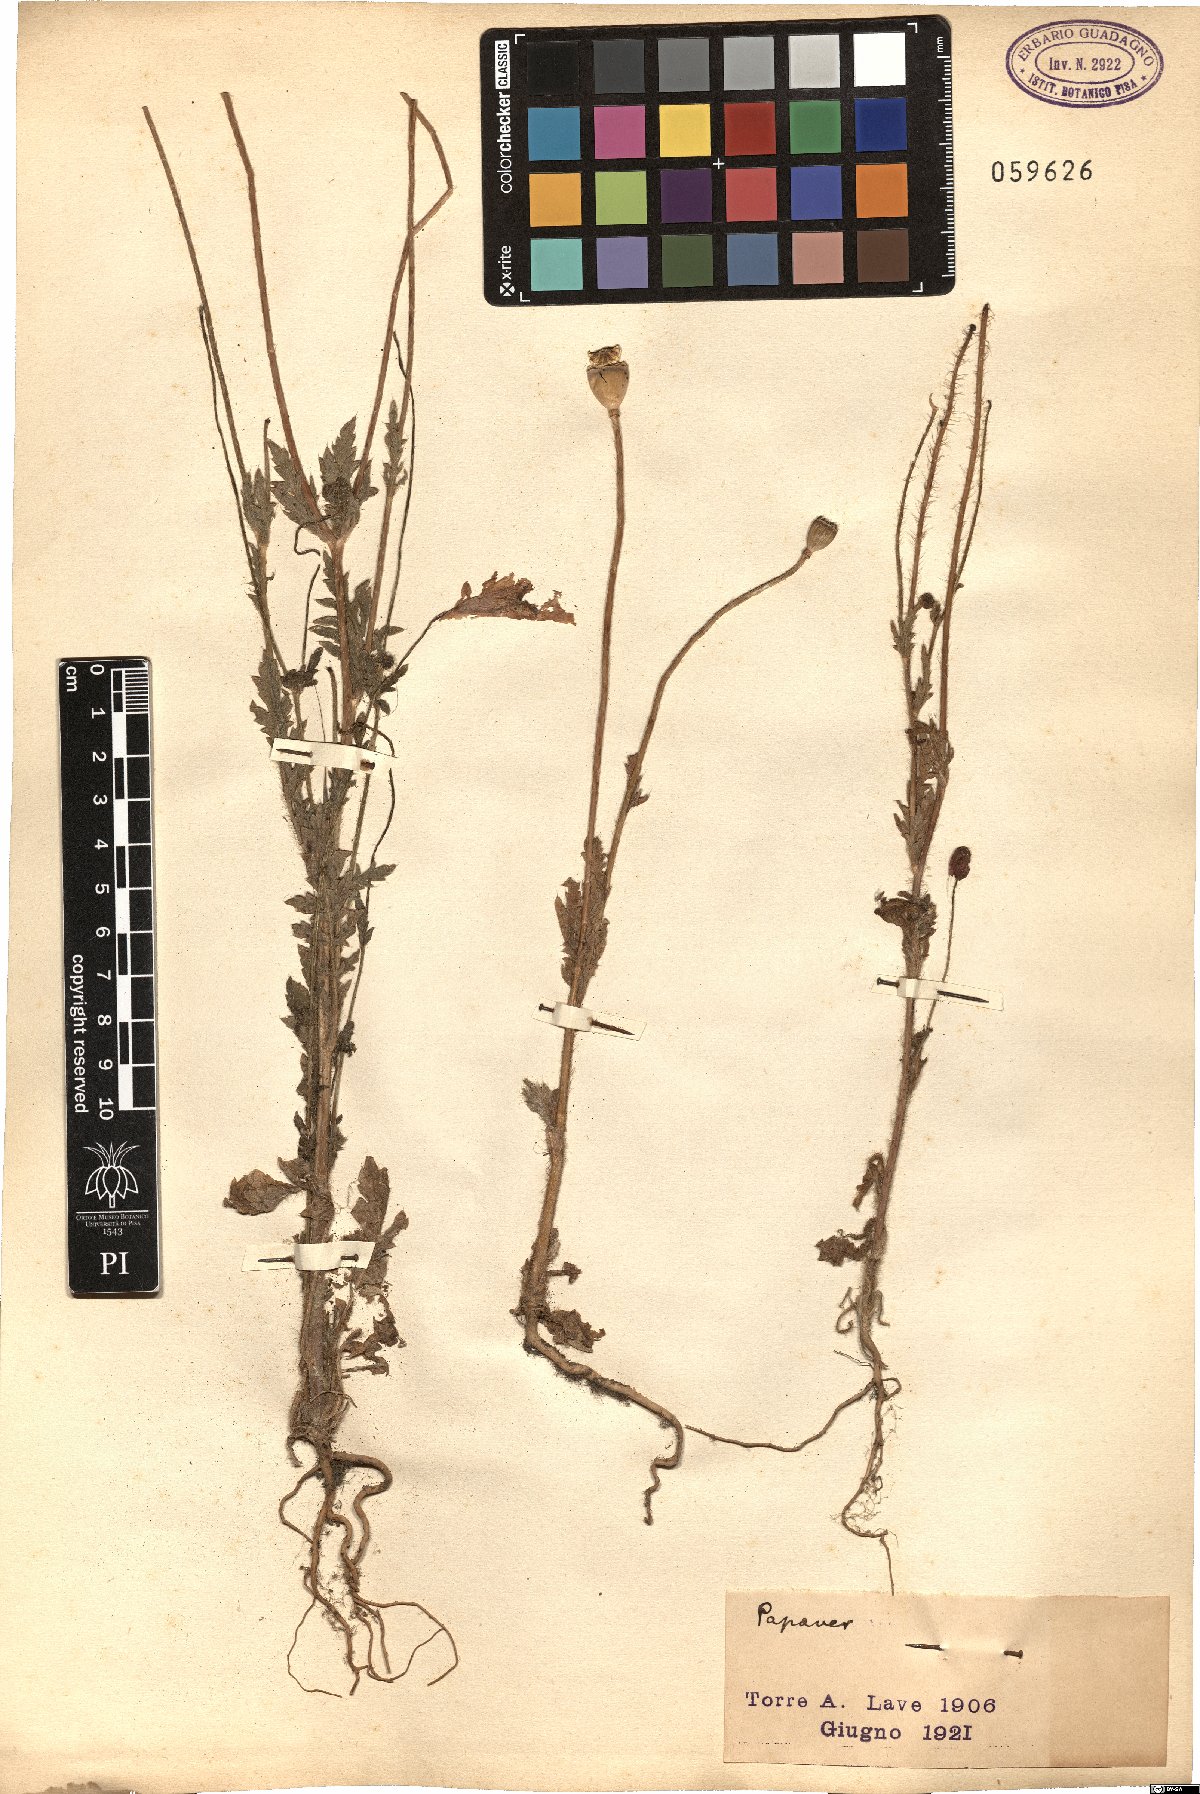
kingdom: Plantae
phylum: Tracheophyta
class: Magnoliopsida
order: Ranunculales
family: Papaveraceae
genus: Papaver
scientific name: Papaver
